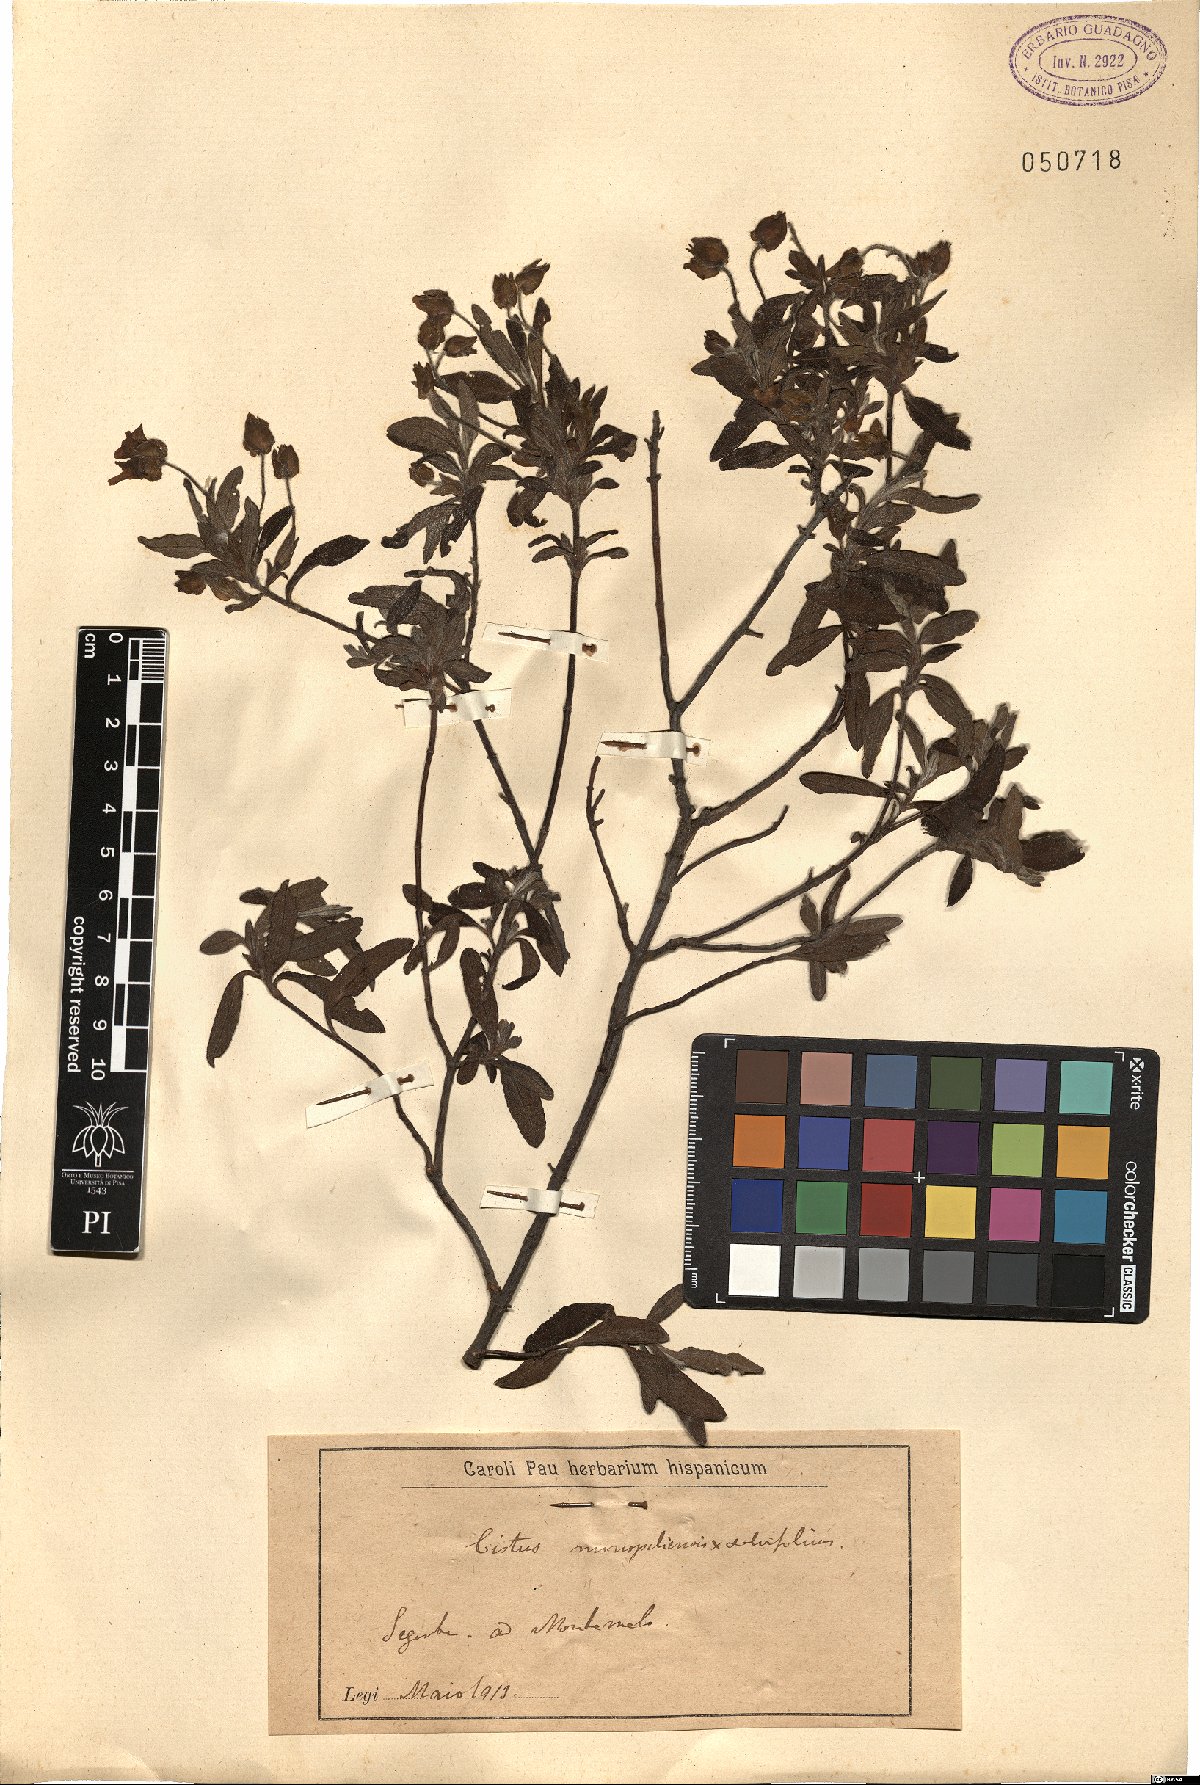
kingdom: Plantae
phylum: Tracheophyta
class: Magnoliopsida
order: Malvales
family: Cistaceae
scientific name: Cistaceae
